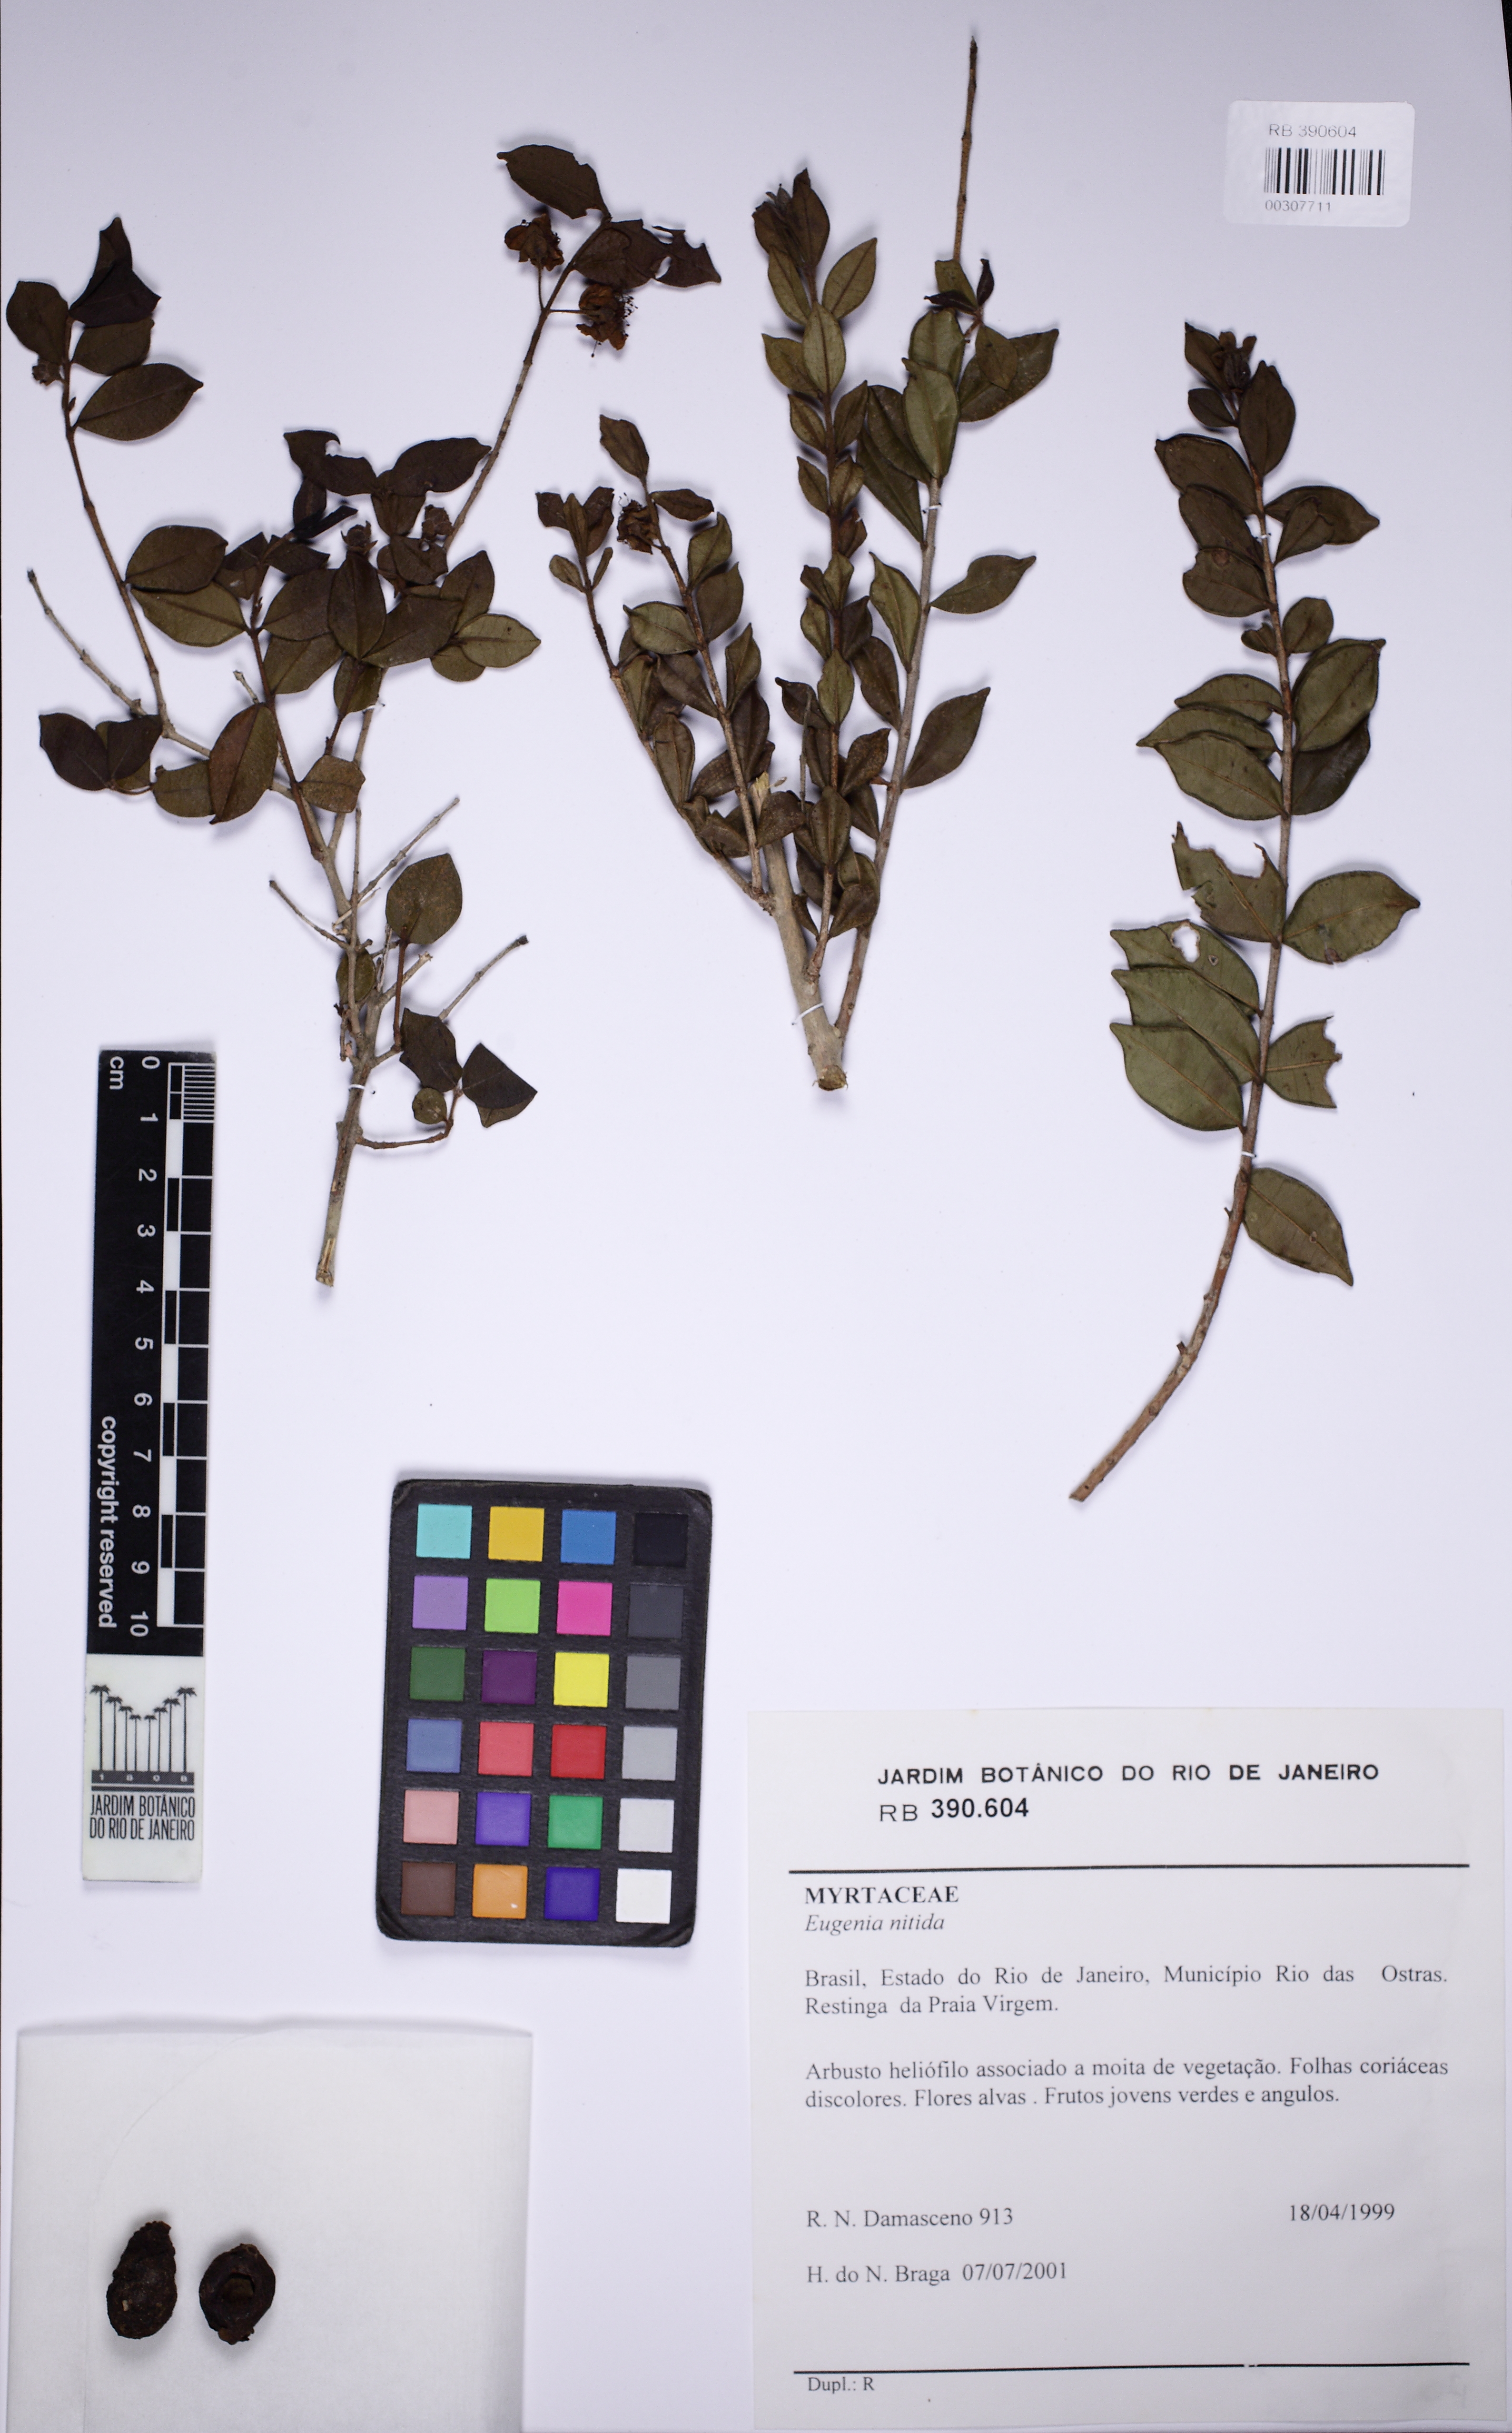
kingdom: Plantae
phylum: Tracheophyta
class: Magnoliopsida
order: Myrtales
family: Myrtaceae
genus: Eugenia
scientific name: Eugenia selloi
